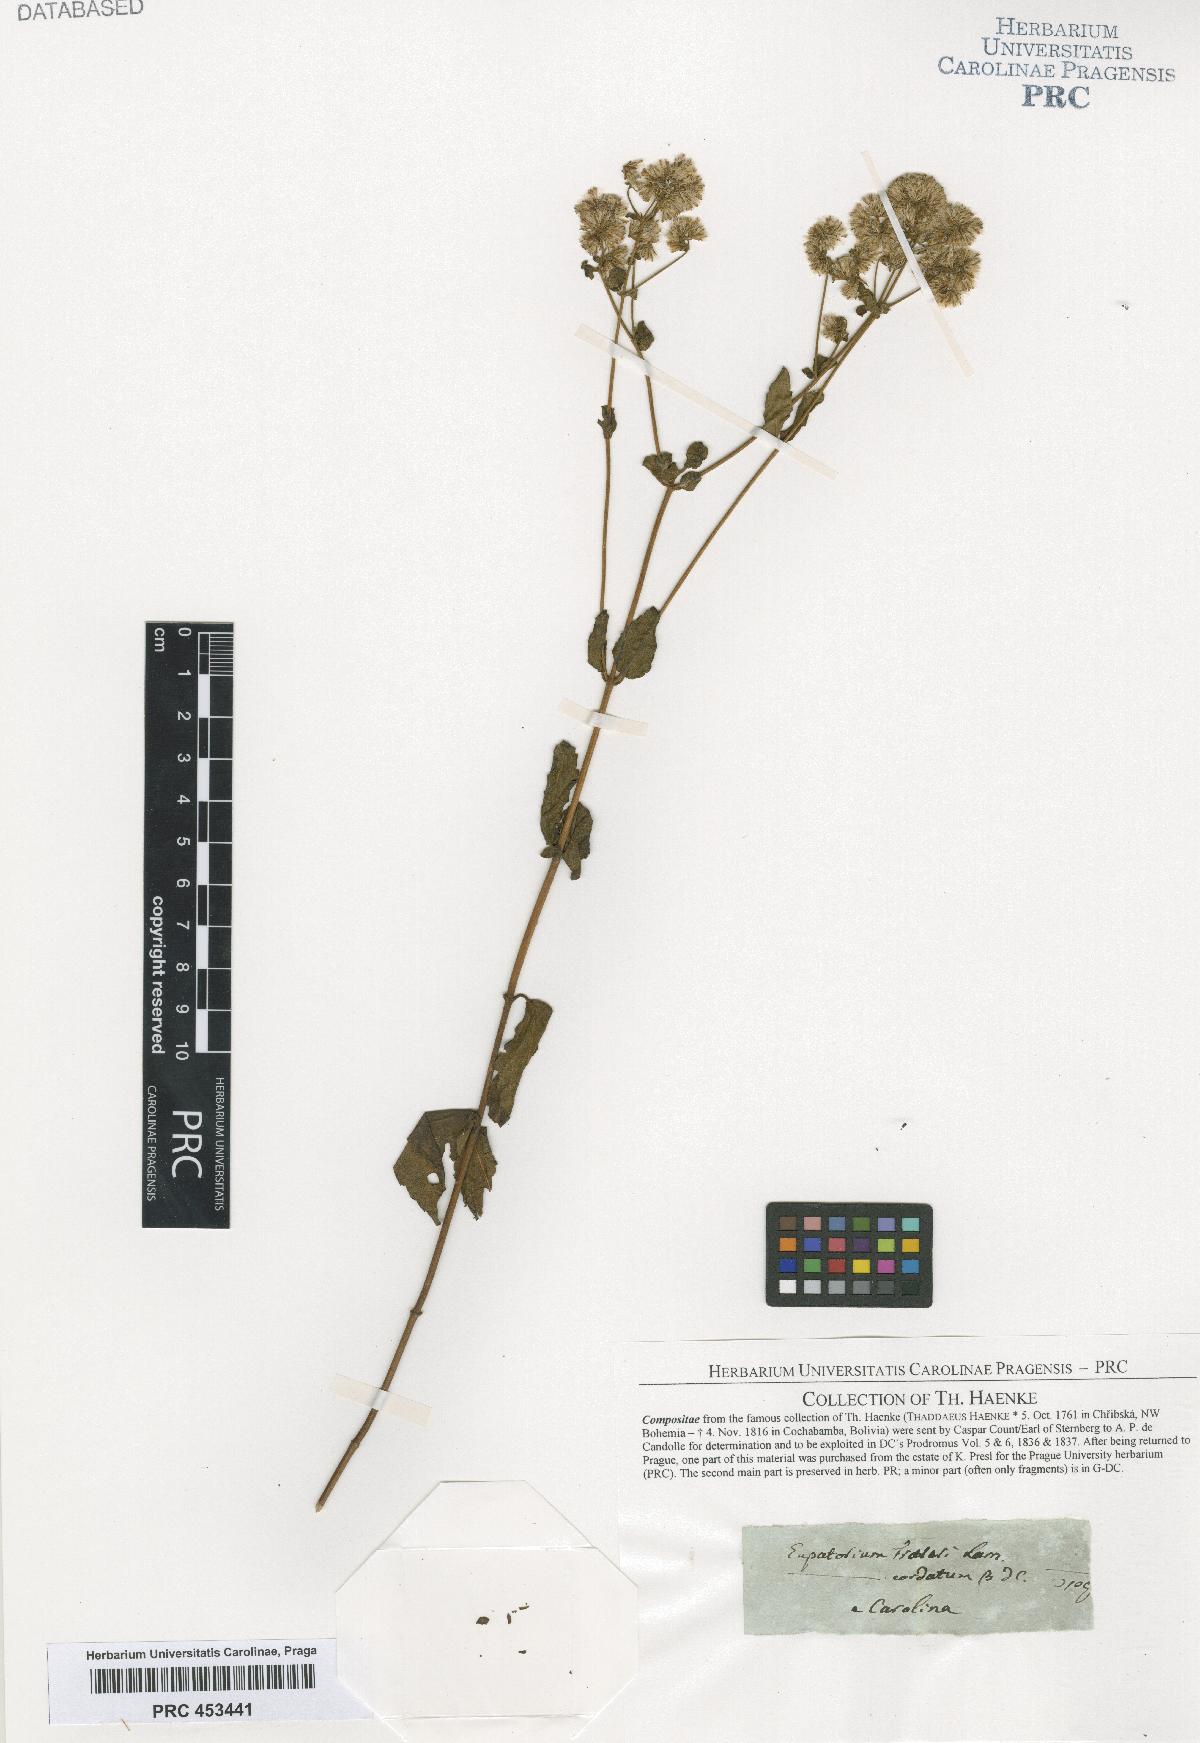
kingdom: Plantae
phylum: Tracheophyta
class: Magnoliopsida
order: Asterales
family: Asteraceae
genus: Eupatorium
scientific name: Eupatorium
